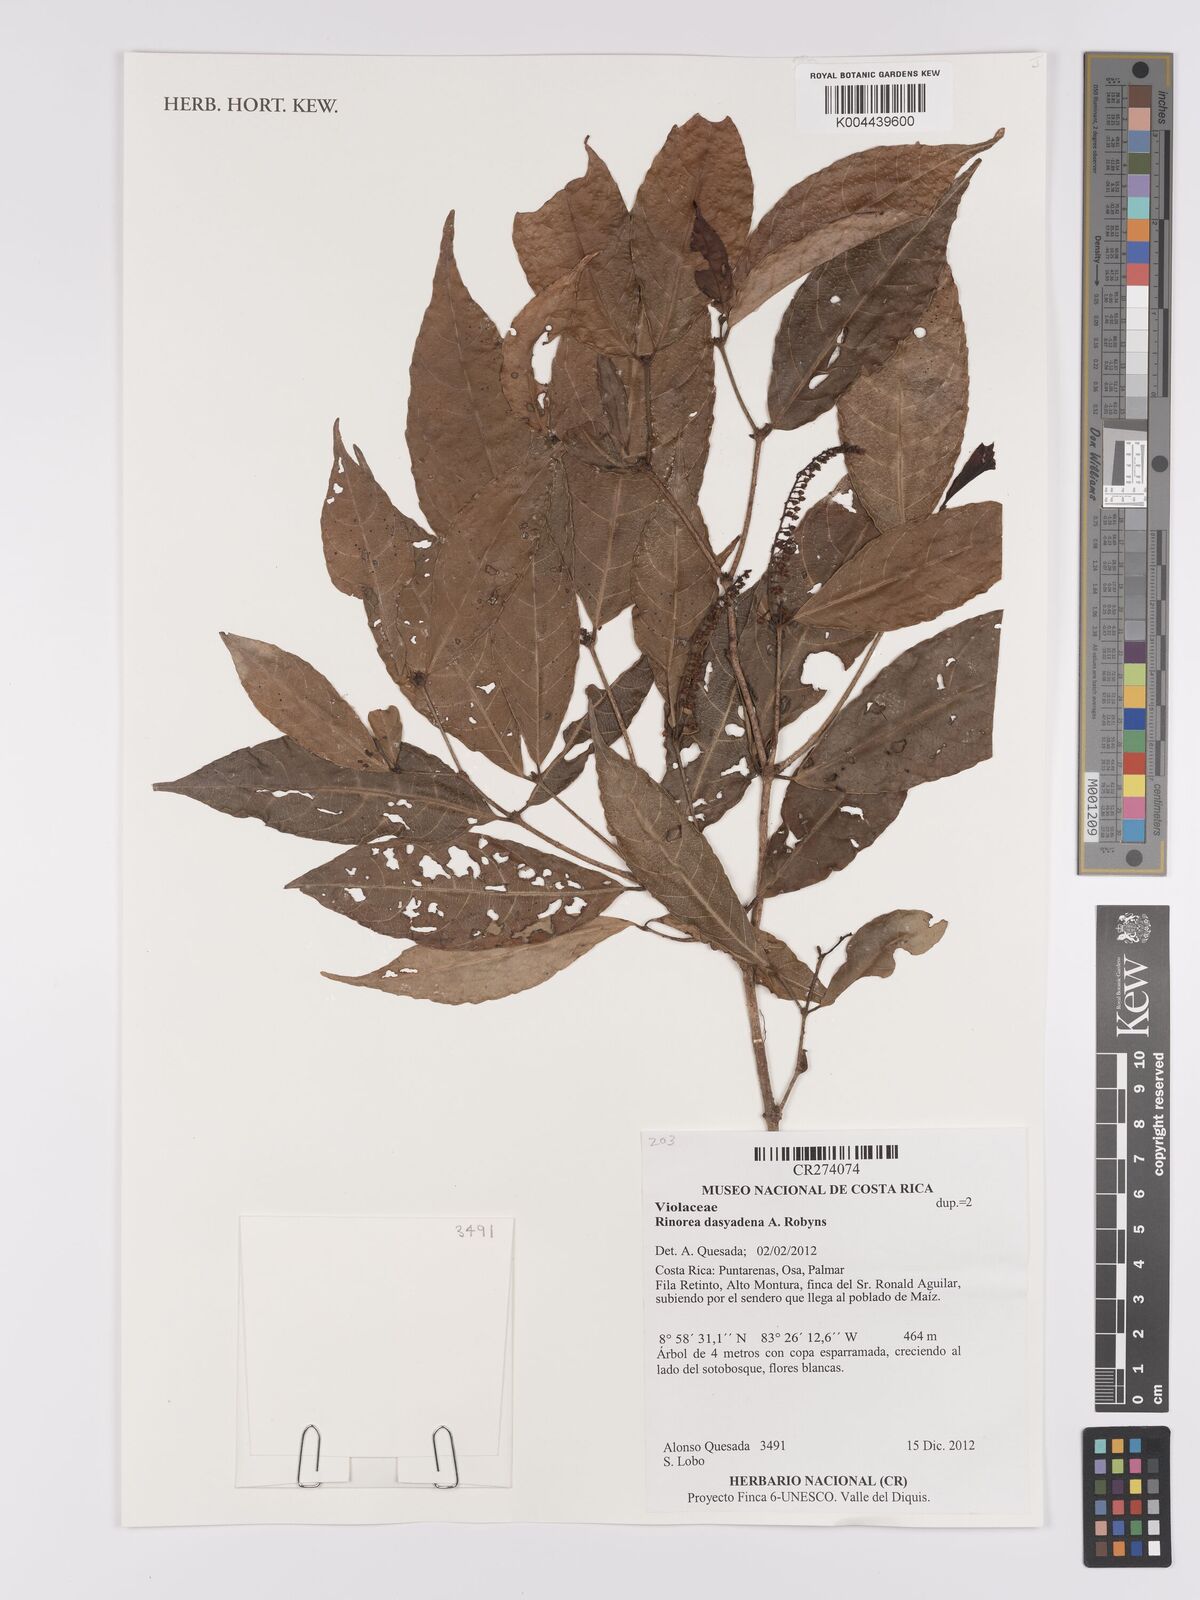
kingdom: Plantae
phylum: Tracheophyta
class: Magnoliopsida
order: Malpighiales
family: Violaceae
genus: Rinorea
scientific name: Rinorea dasyadena
